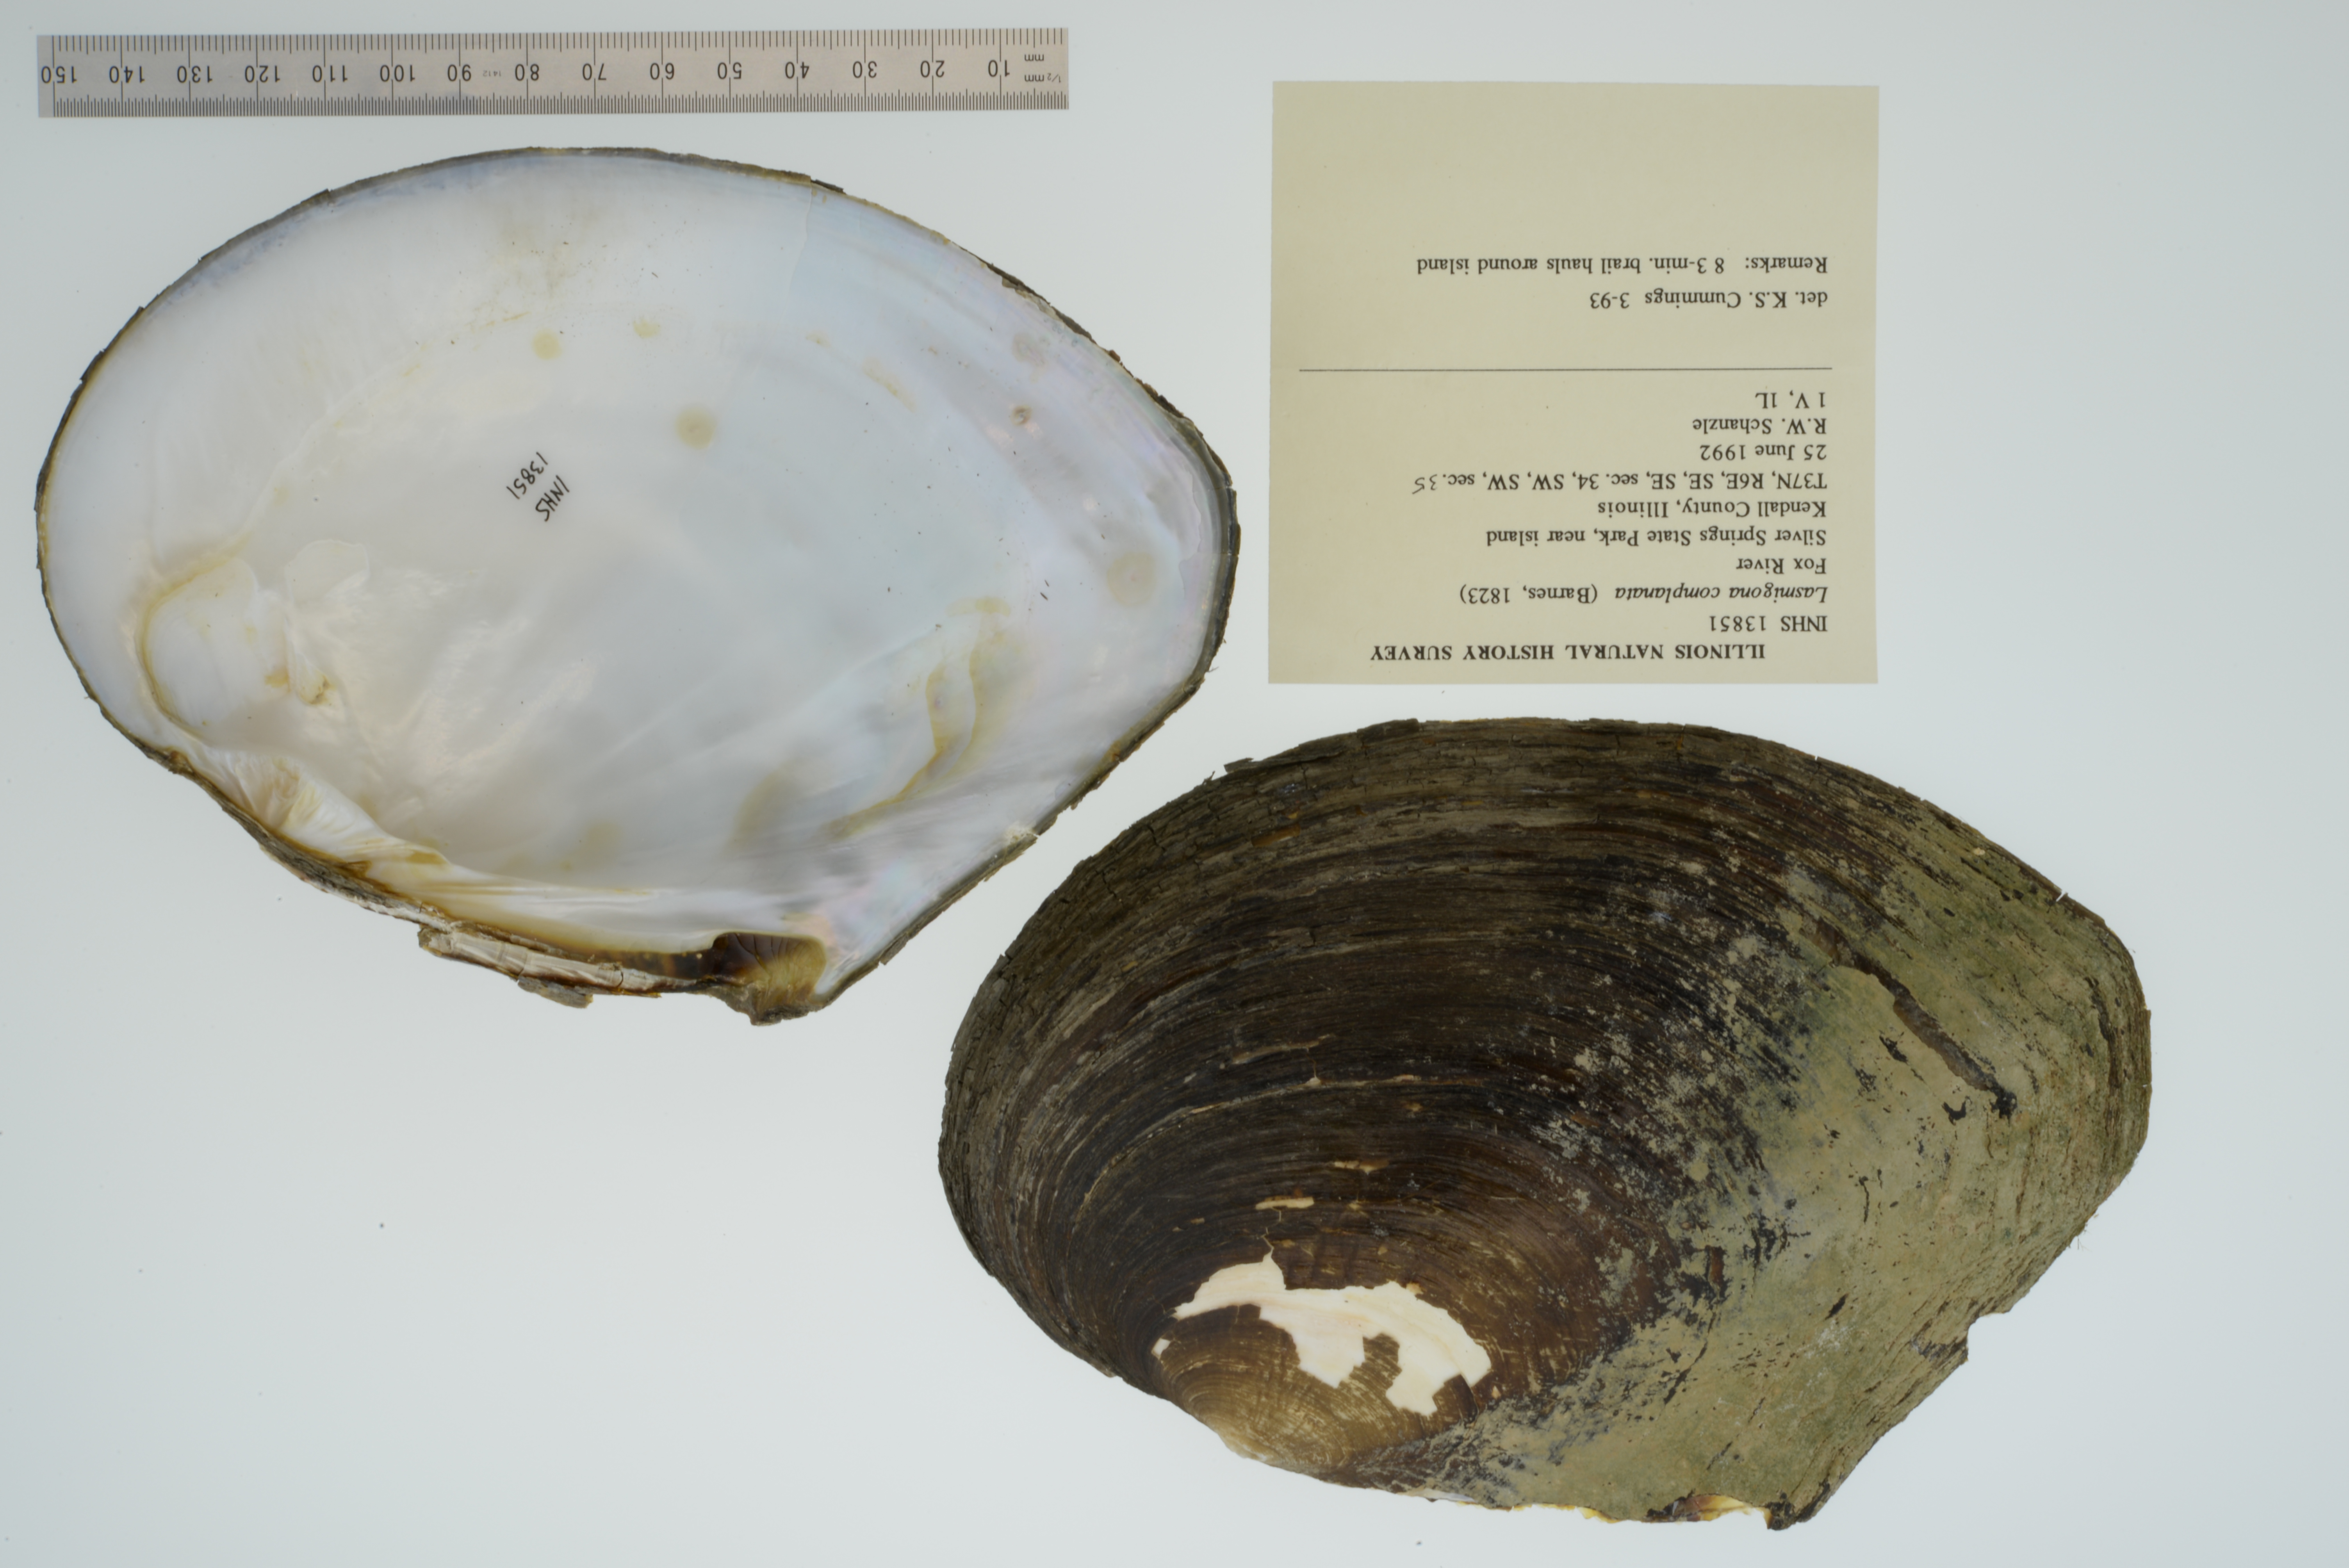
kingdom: Animalia
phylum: Mollusca
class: Bivalvia
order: Unionida
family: Unionidae
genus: Lasmigona
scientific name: Lasmigona complanata
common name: White heelsplitter
